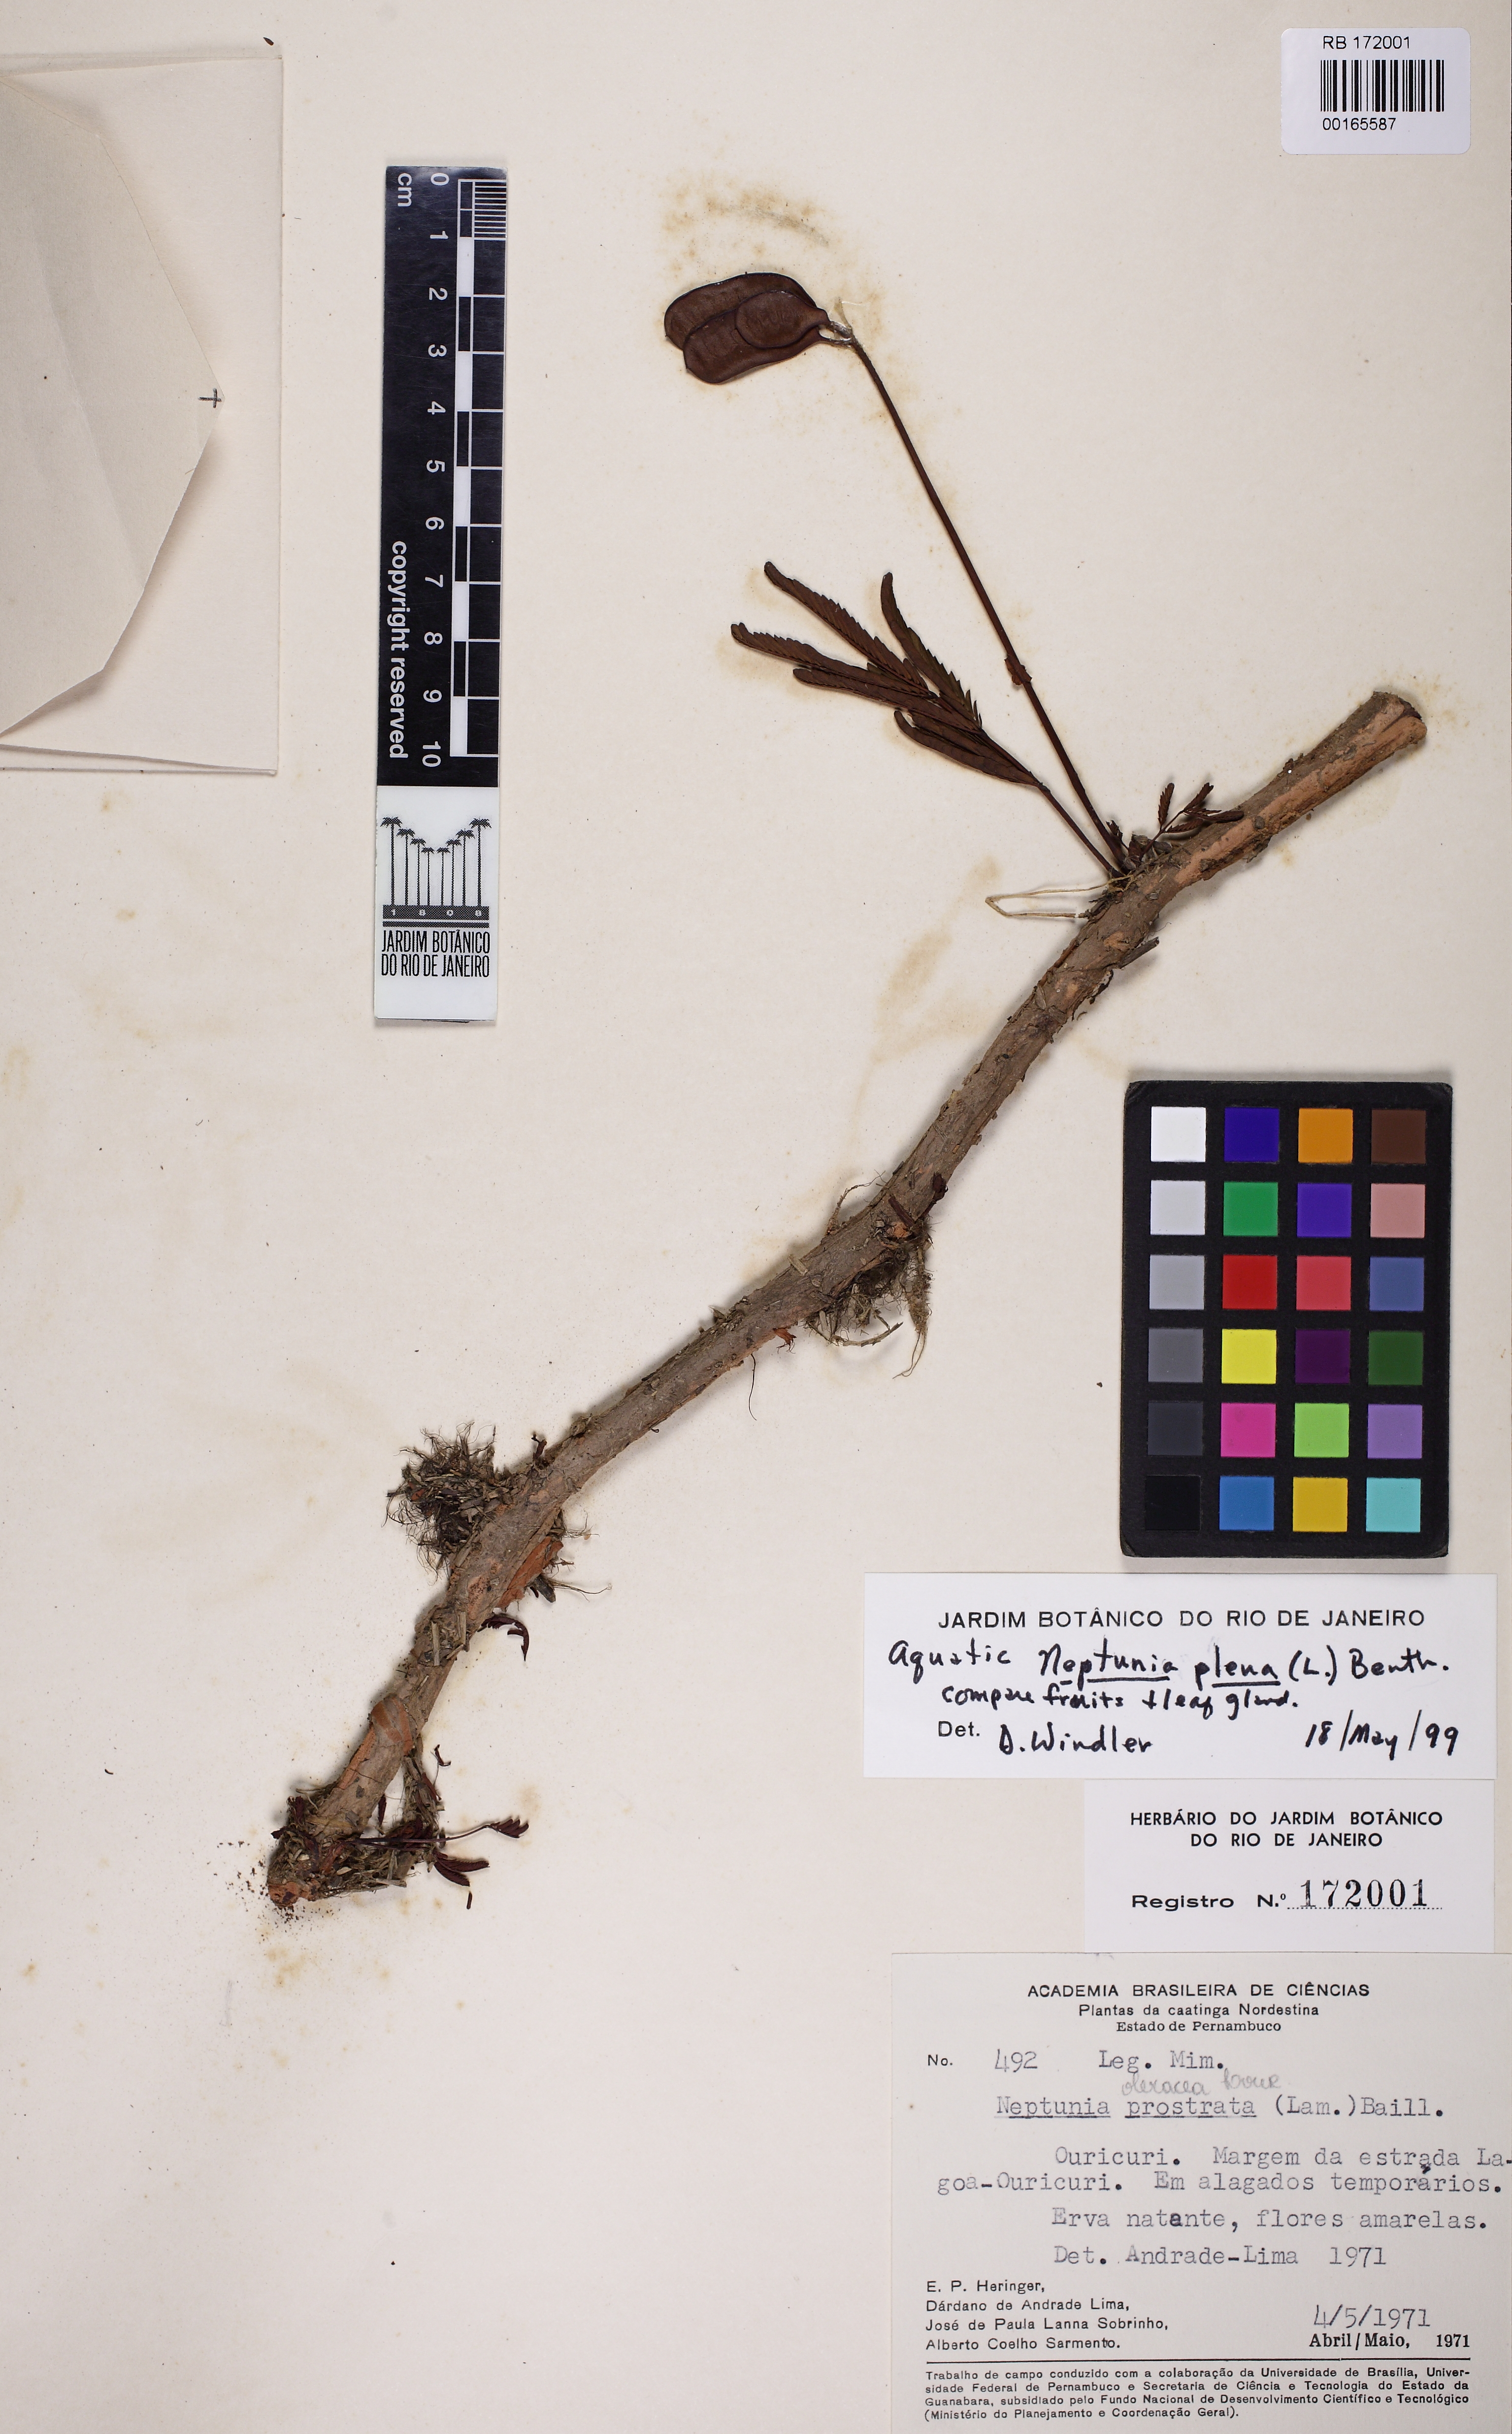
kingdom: Plantae
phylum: Tracheophyta
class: Magnoliopsida
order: Fabales
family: Fabaceae
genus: Neptunia
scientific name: Neptunia plena
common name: Dead and awake
